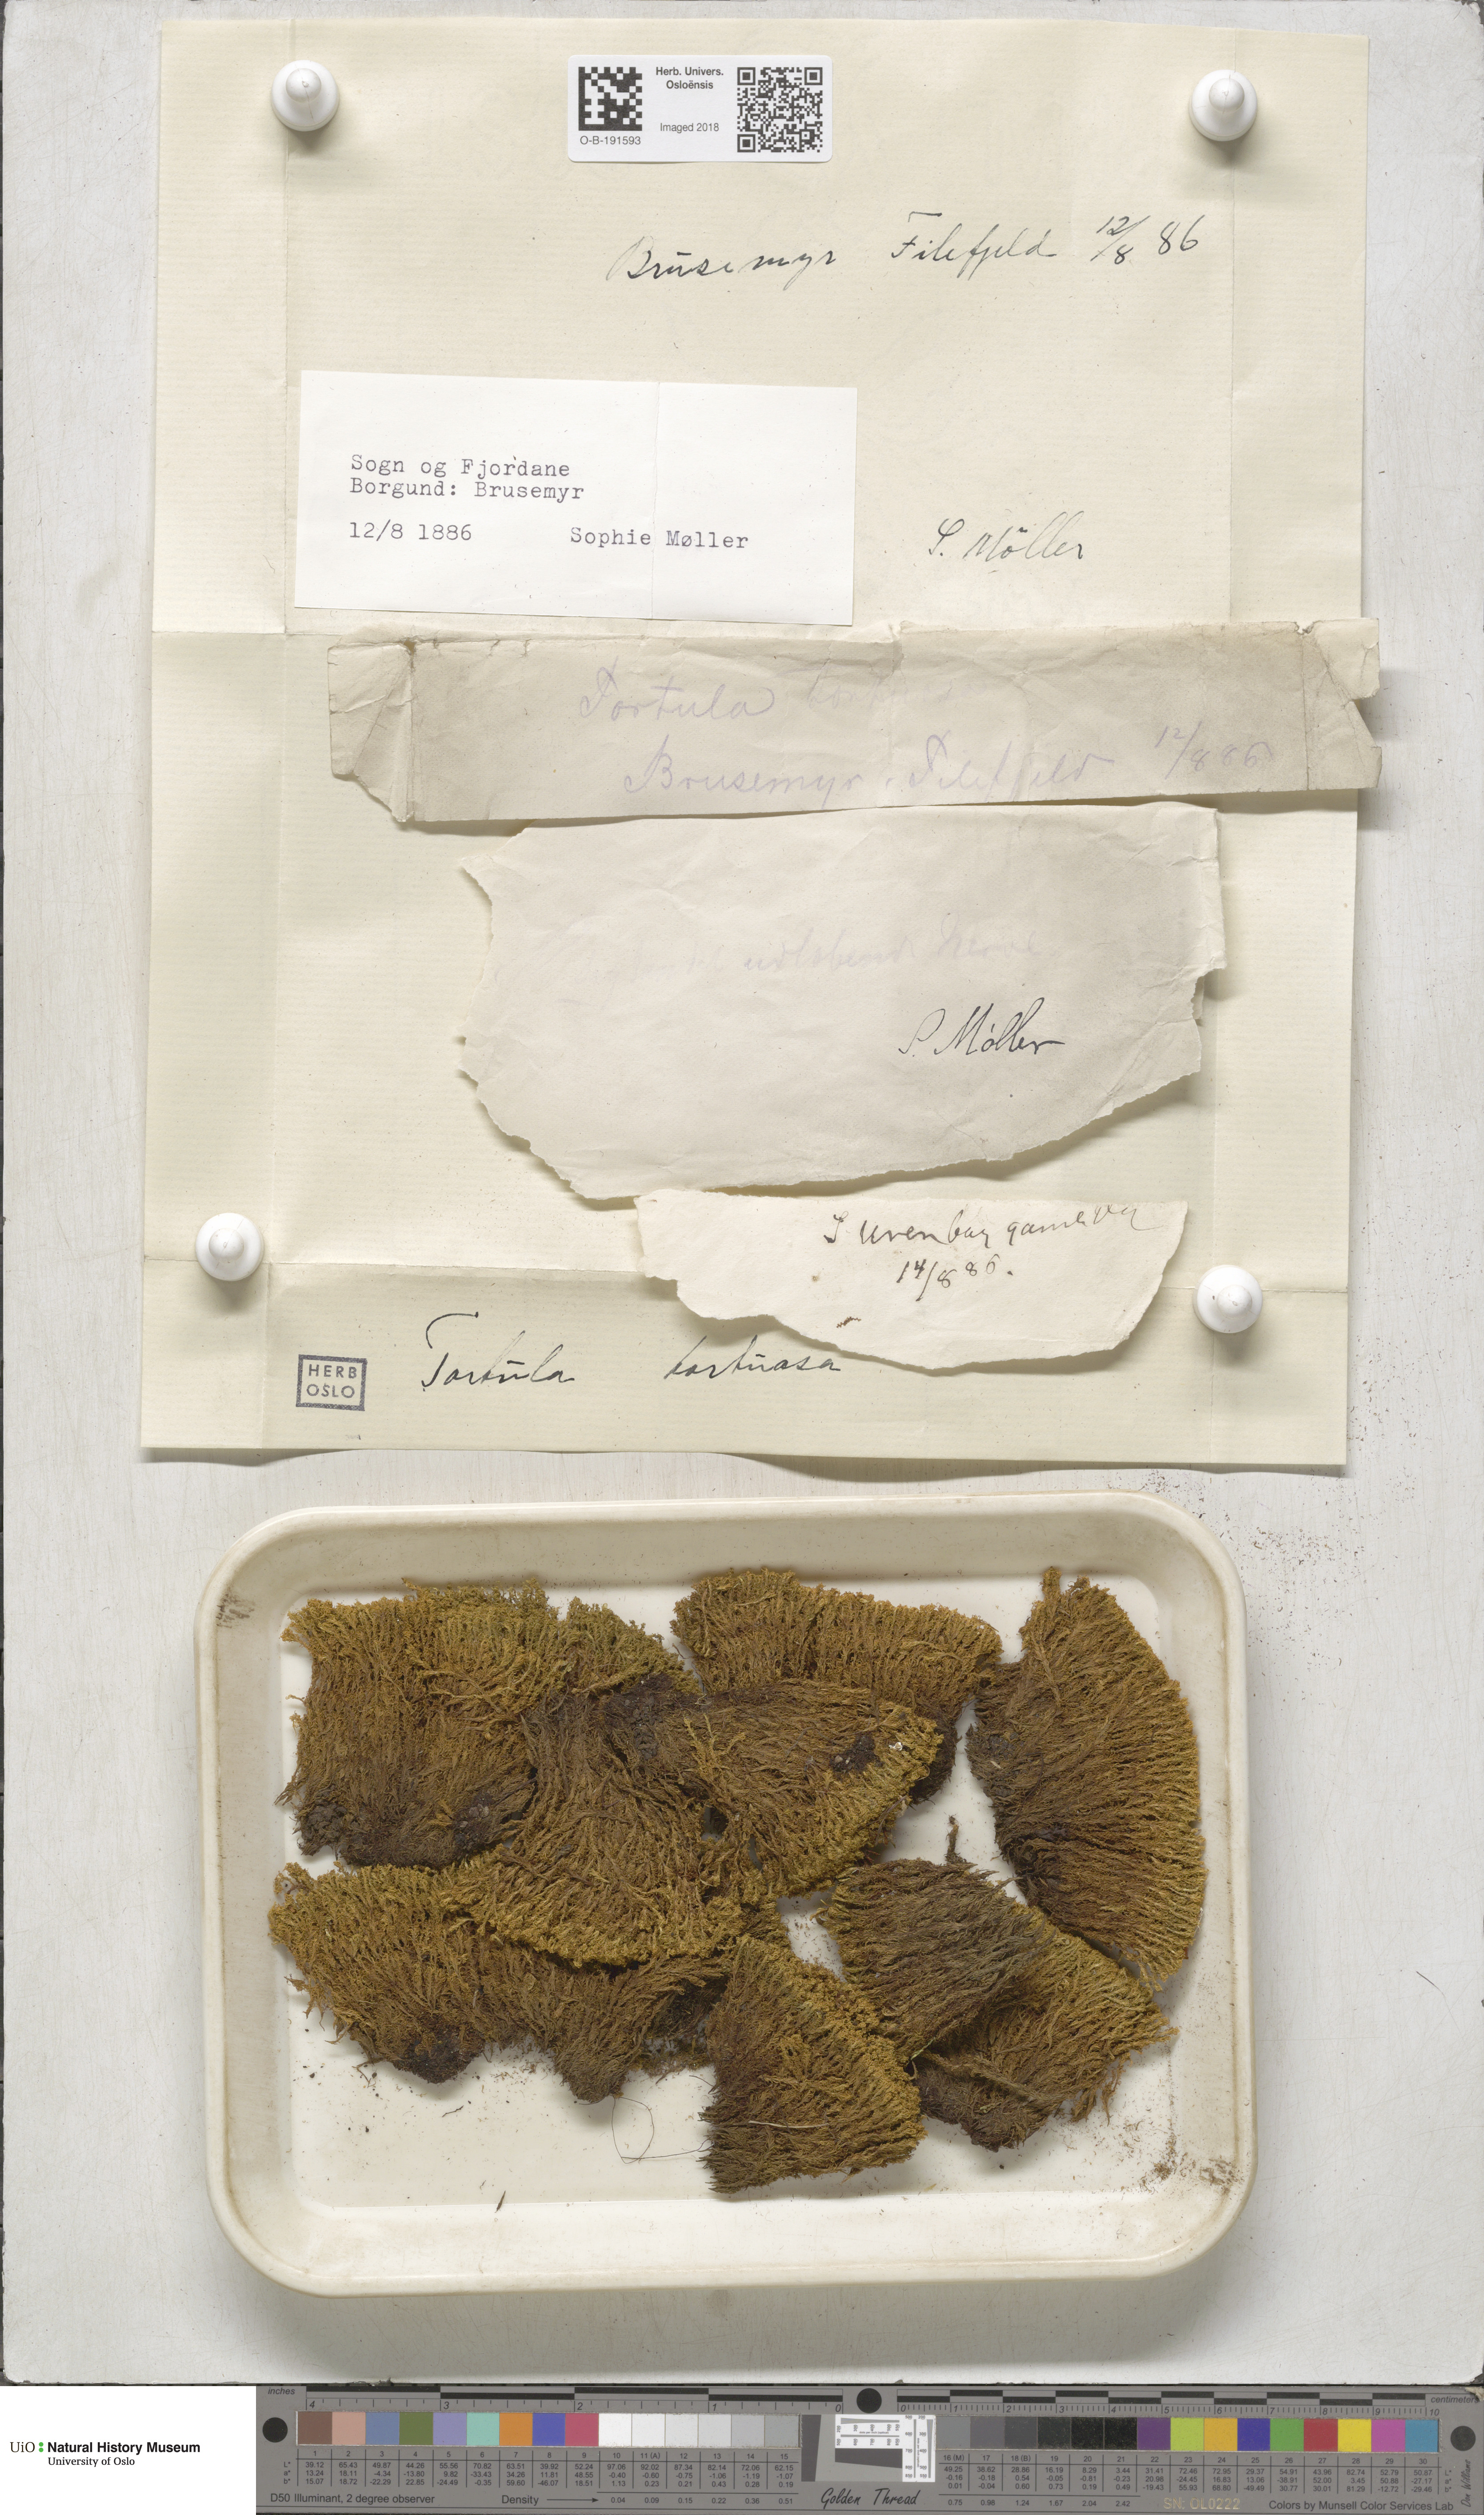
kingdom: Plantae
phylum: Bryophyta
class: Bryopsida
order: Pottiales
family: Pottiaceae
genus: Tortella
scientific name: Tortella tortuosa
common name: Frizzled crisp moss
